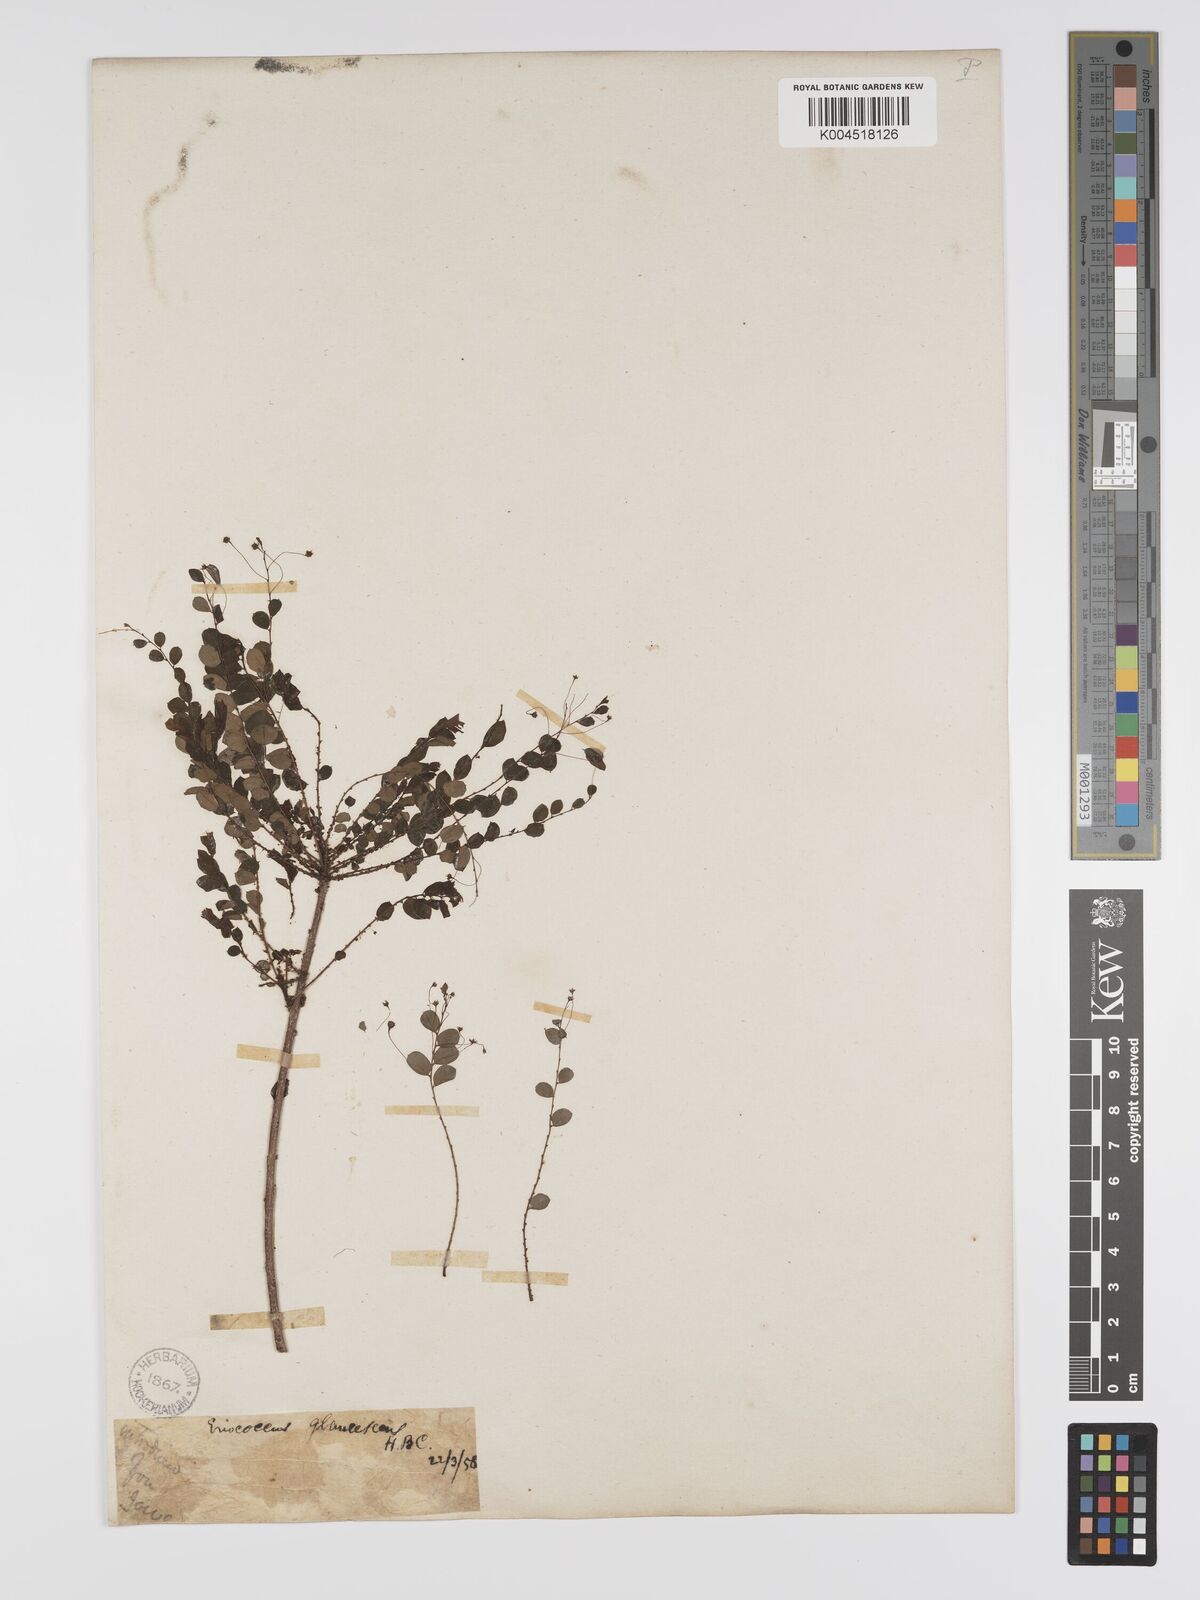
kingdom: Plantae
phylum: Tracheophyta
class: Magnoliopsida
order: Malpighiales
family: Phyllanthaceae
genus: Phyllanthus
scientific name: Phyllanthus
